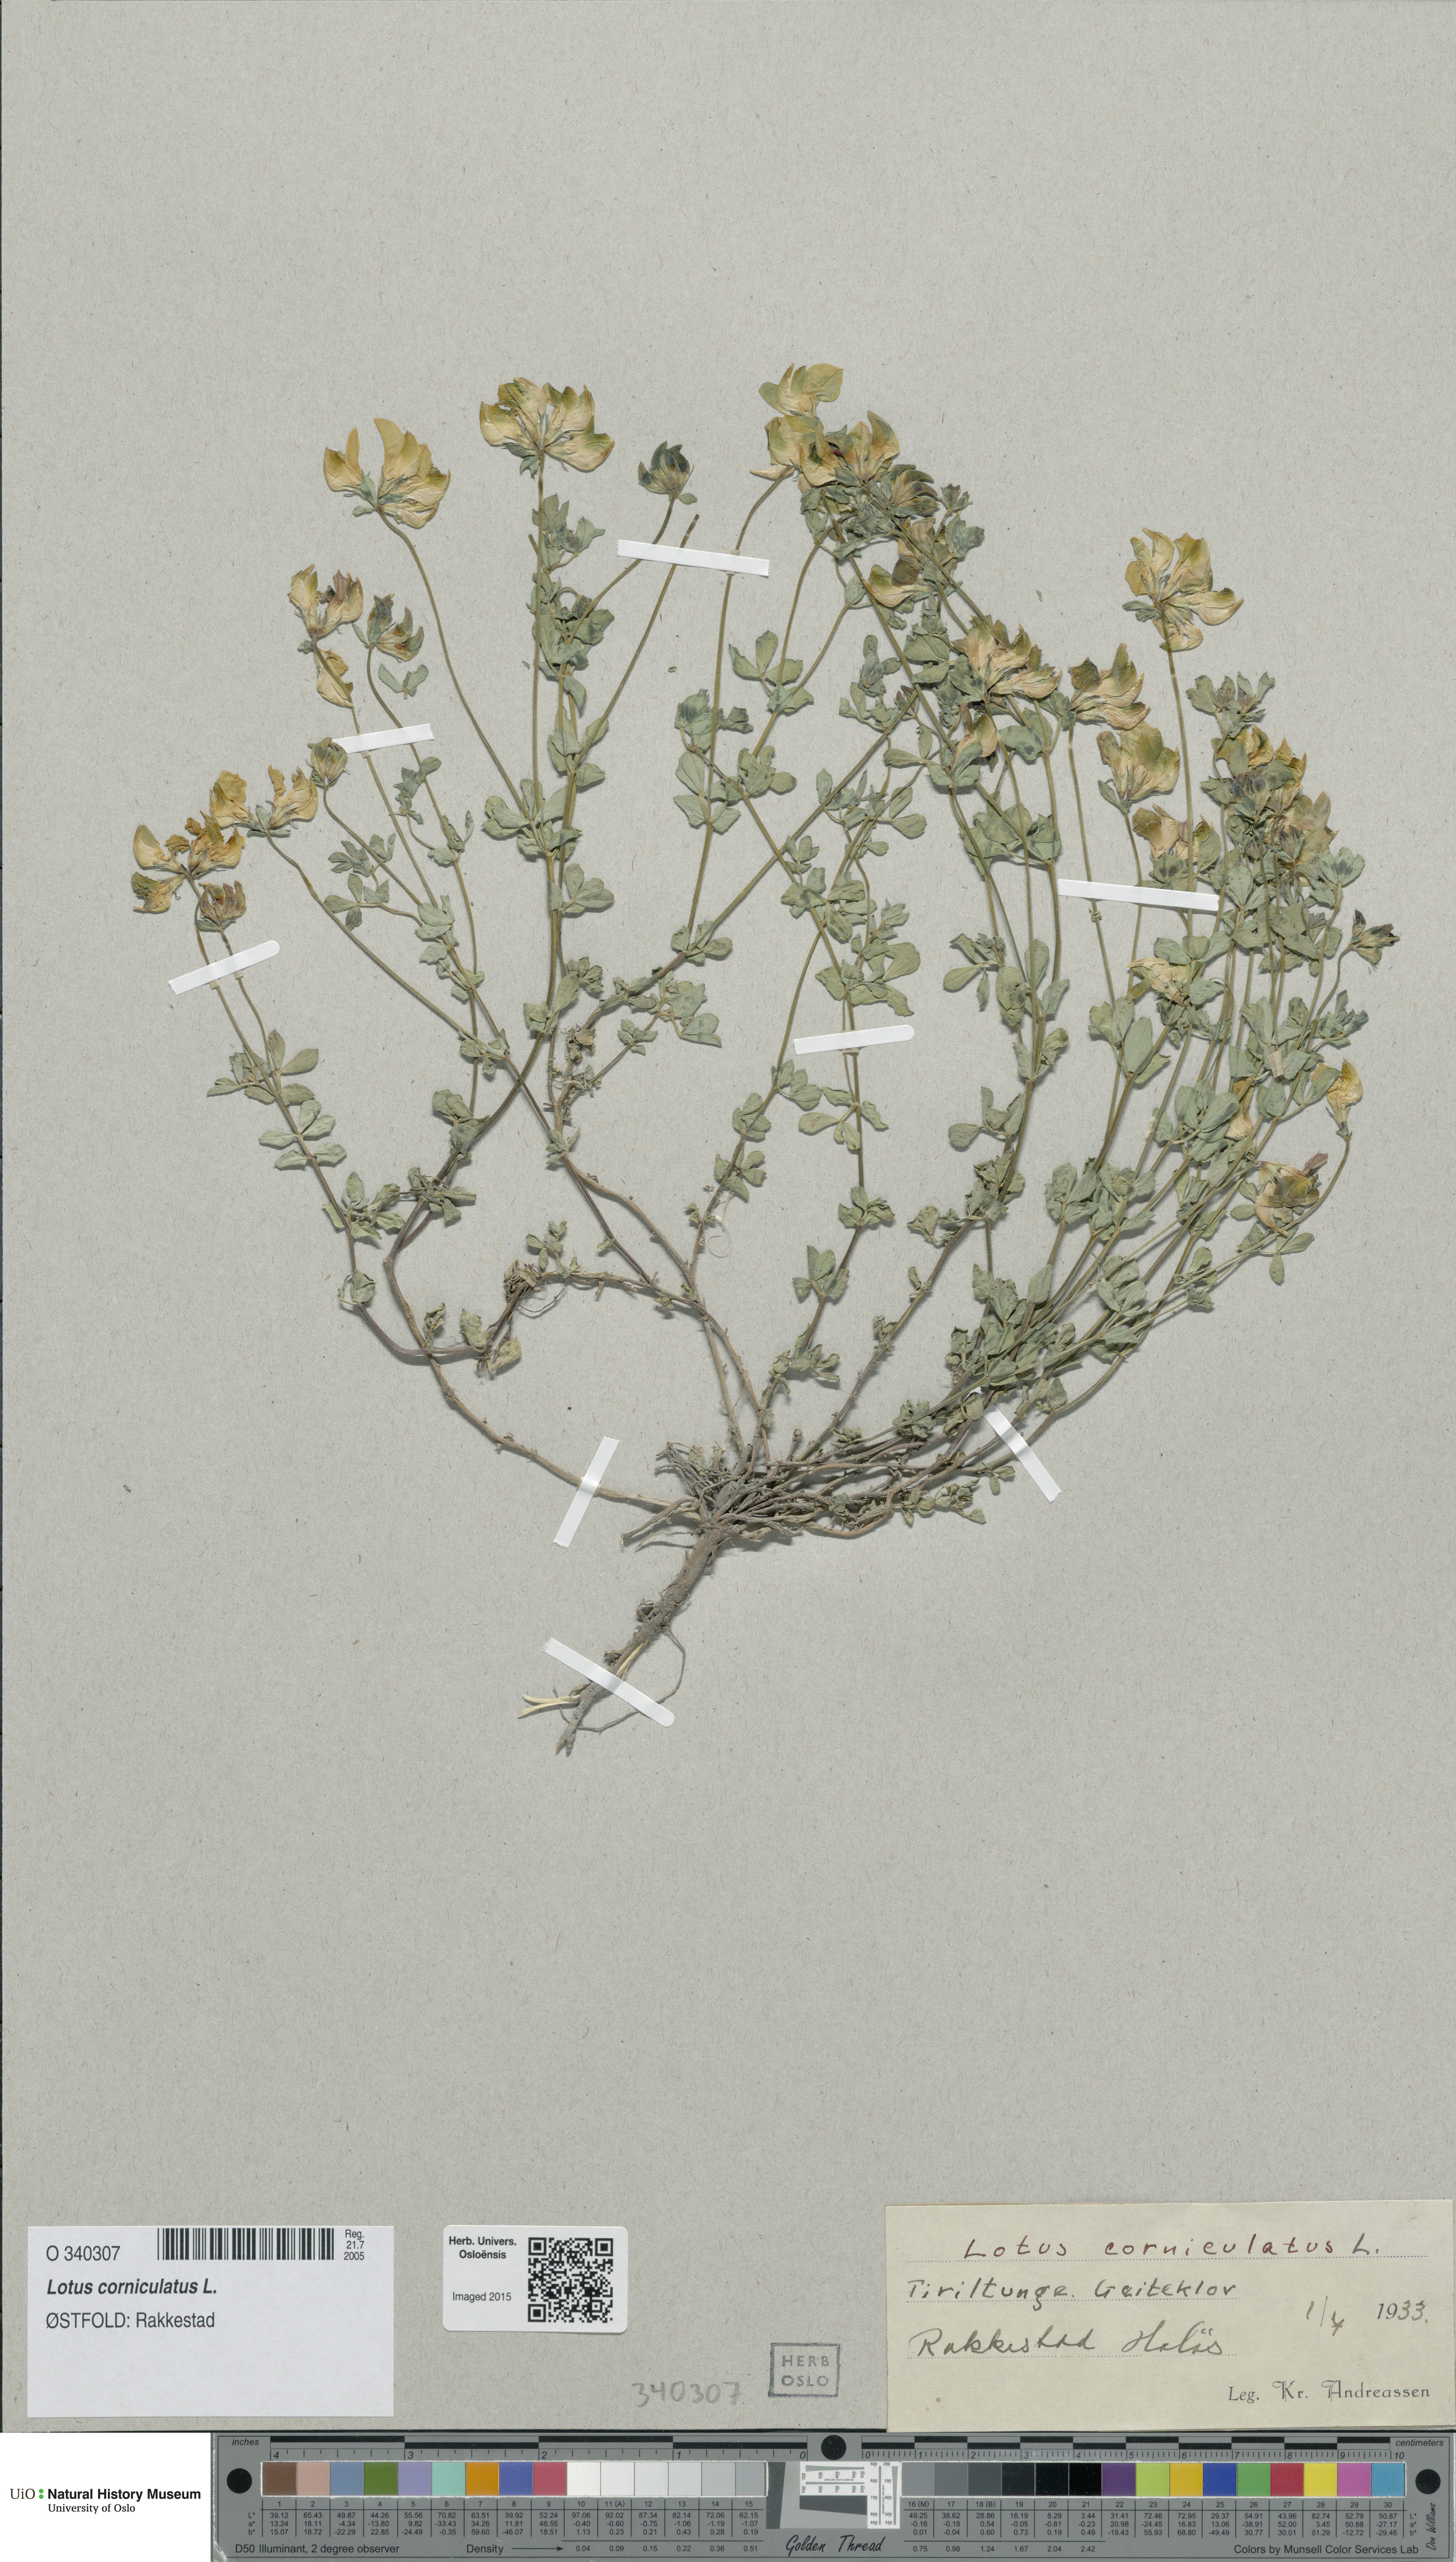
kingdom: Plantae
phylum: Tracheophyta
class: Magnoliopsida
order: Fabales
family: Fabaceae
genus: Lotus
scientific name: Lotus corniculatus
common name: Common bird's-foot-trefoil
